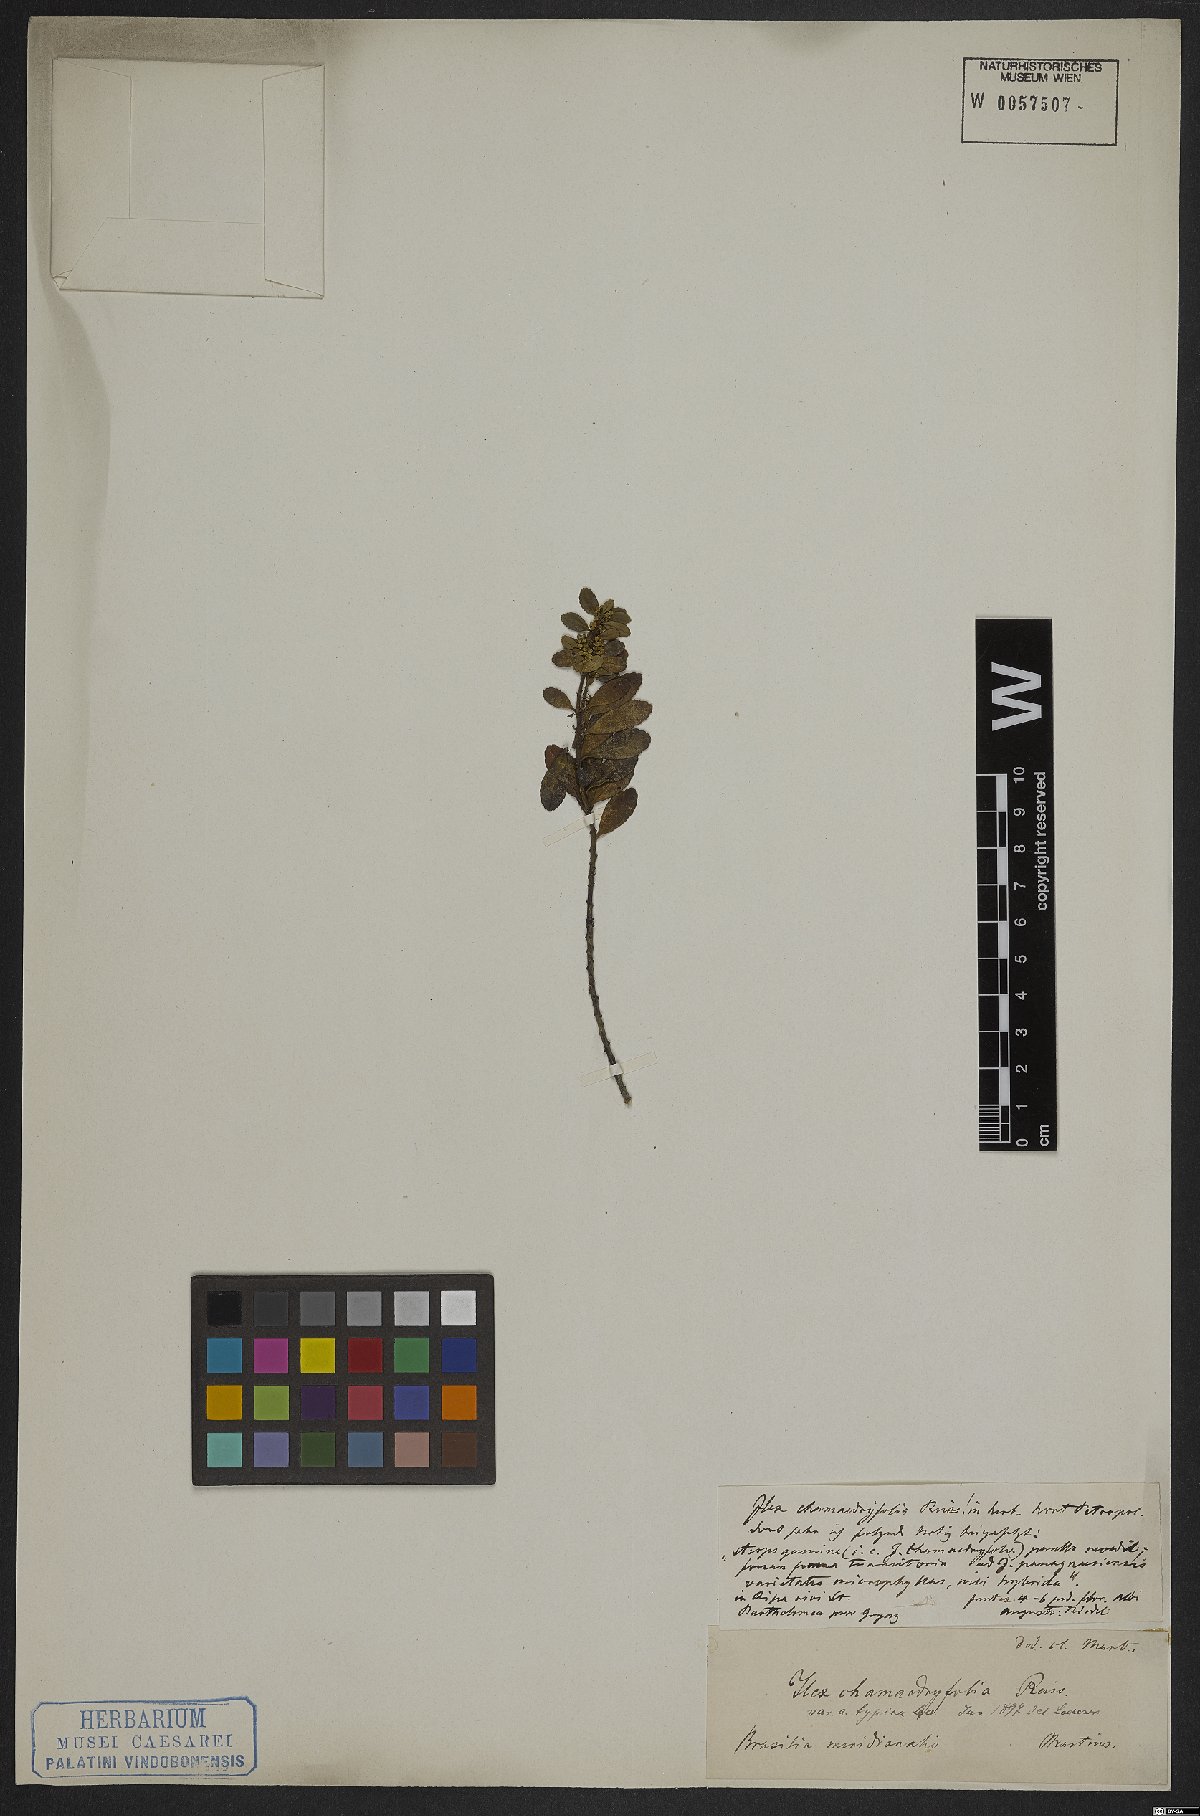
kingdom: Plantae
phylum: Tracheophyta
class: Magnoliopsida
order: Aquifoliales
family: Aquifoliaceae
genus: Ilex
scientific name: Ilex chamaedryfolia
